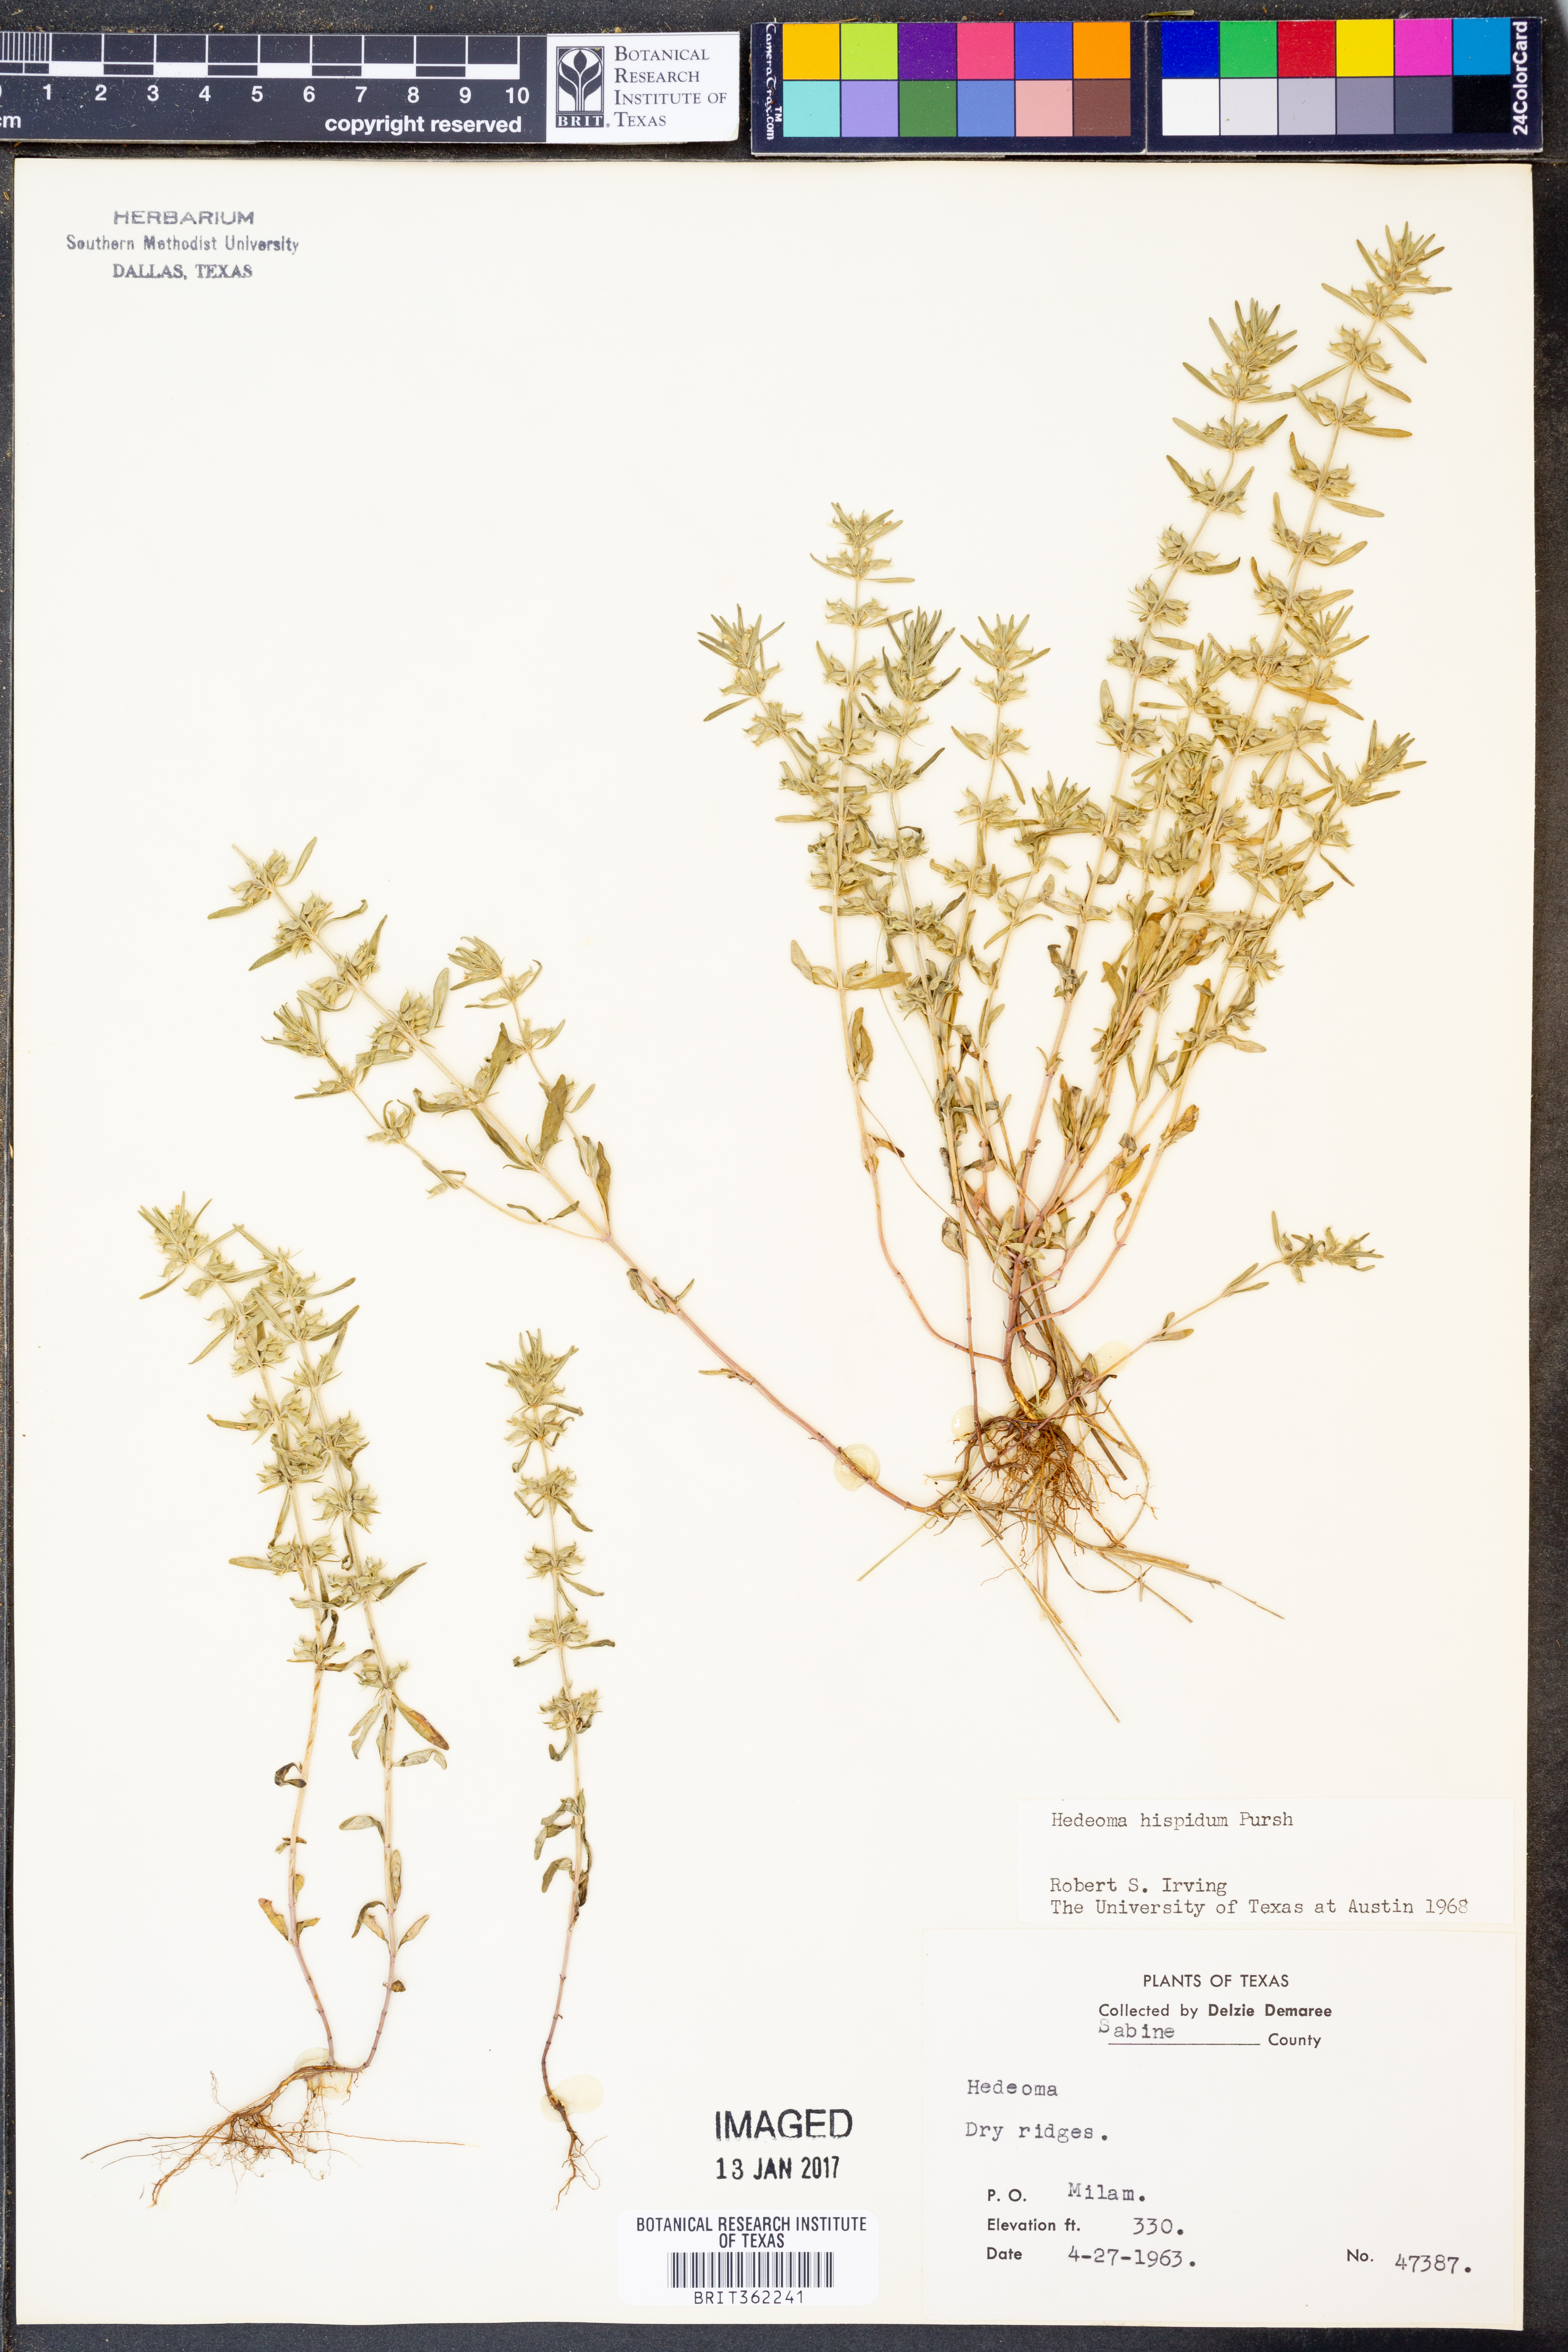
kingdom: Plantae
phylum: Tracheophyta
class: Magnoliopsida
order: Lamiales
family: Lamiaceae
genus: Hedeoma
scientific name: Hedeoma hispida
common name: Mock pennyroyal
